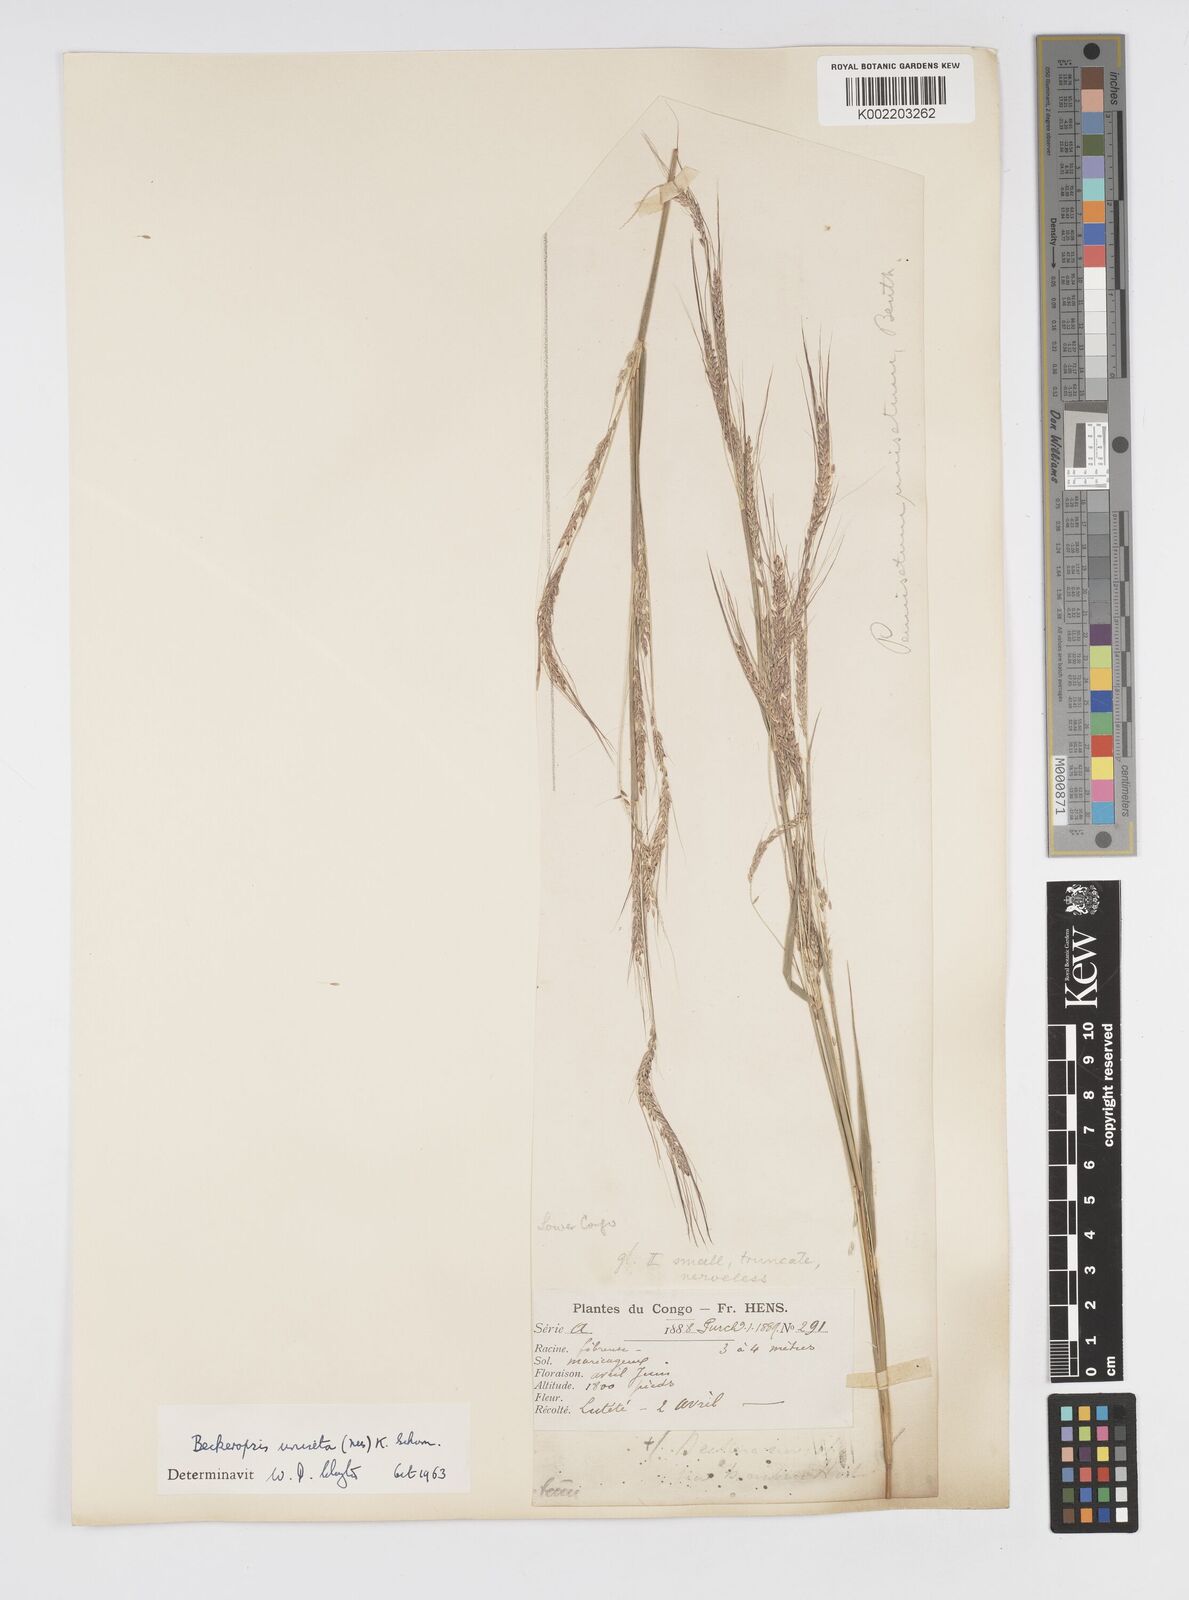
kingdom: Plantae
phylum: Tracheophyta
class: Liliopsida
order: Poales
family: Poaceae
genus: Cenchrus
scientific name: Cenchrus unisetus
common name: Natal grass
